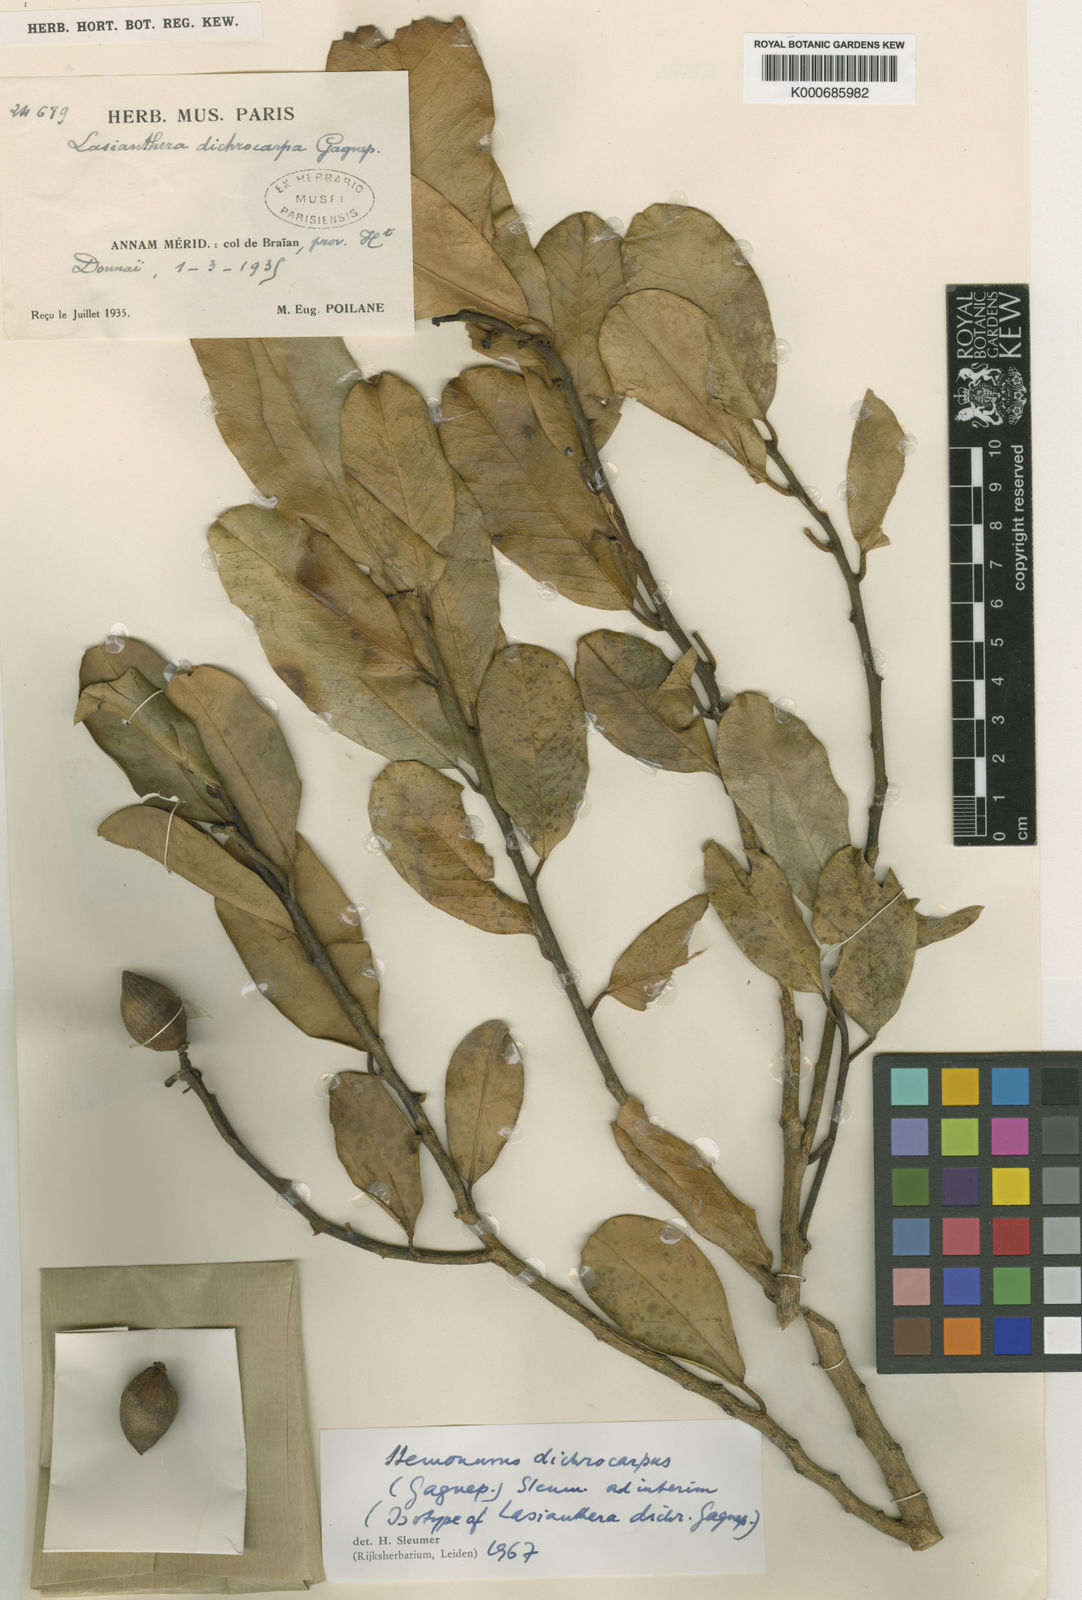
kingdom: Plantae
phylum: Tracheophyta
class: Magnoliopsida
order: Cardiopteridales
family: Stemonuraceae
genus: Stemonurus
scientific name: Stemonurus dichrocarpus
